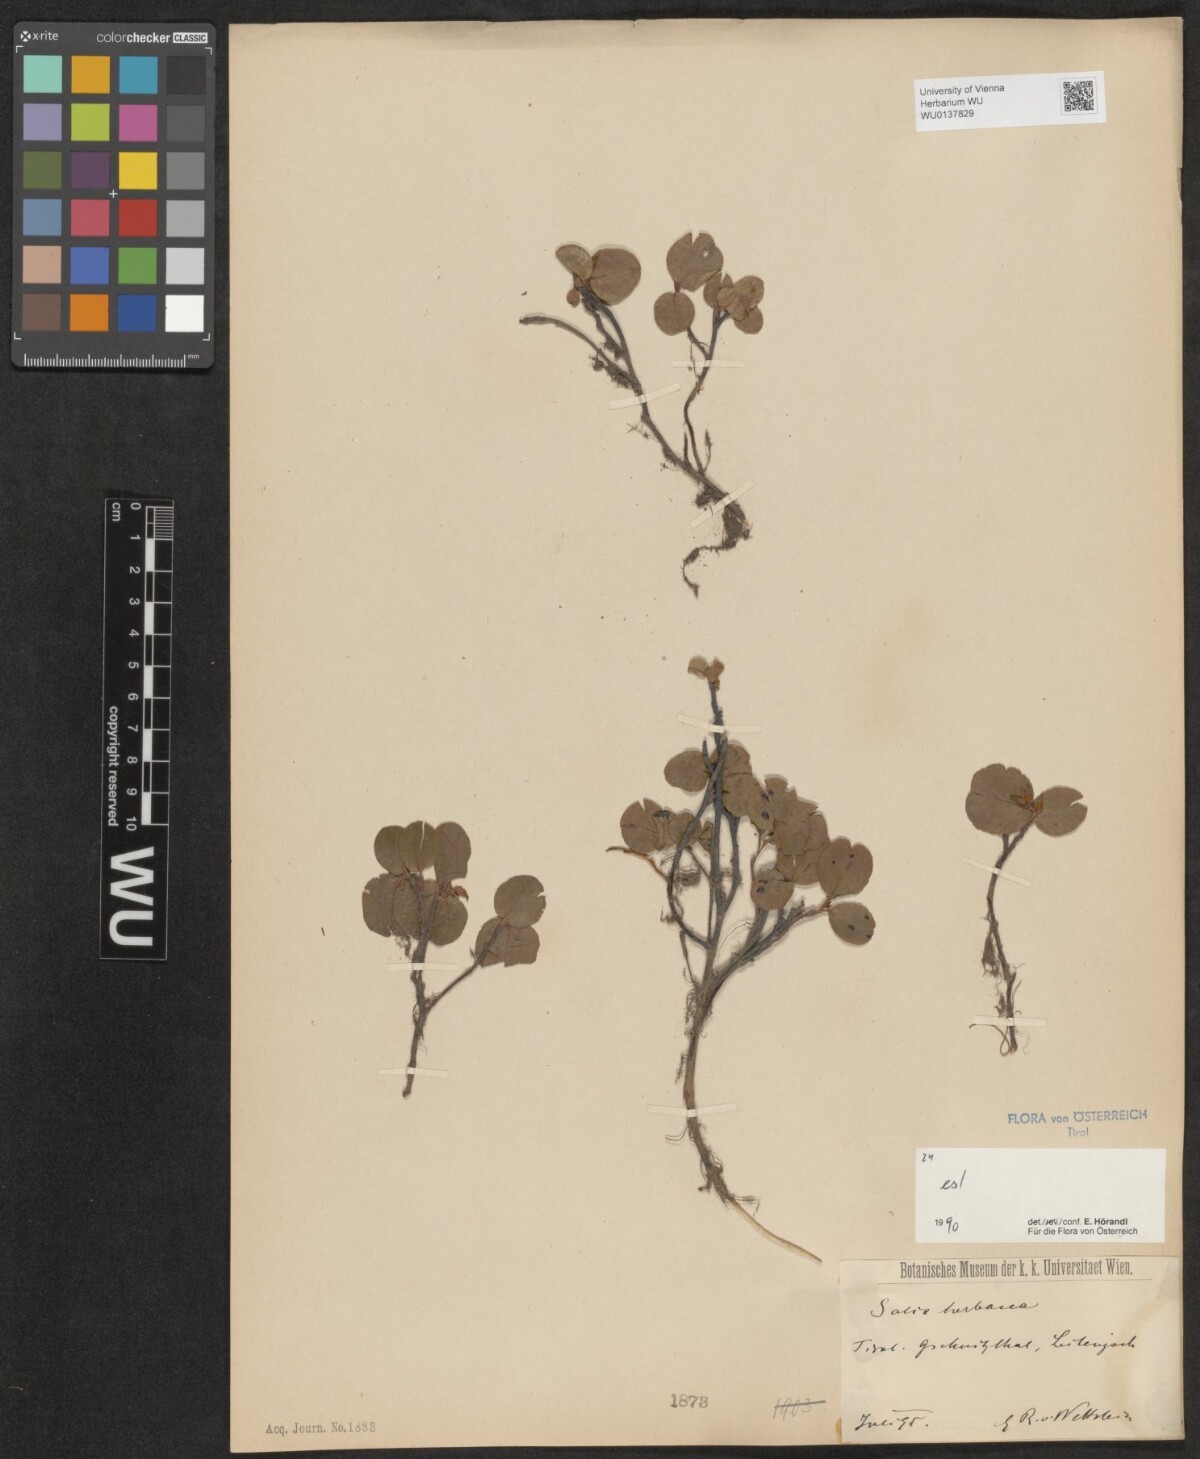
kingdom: Plantae
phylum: Tracheophyta
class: Magnoliopsida
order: Malpighiales
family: Salicaceae
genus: Salix
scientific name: Salix herbacea
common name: Dwarf willow
